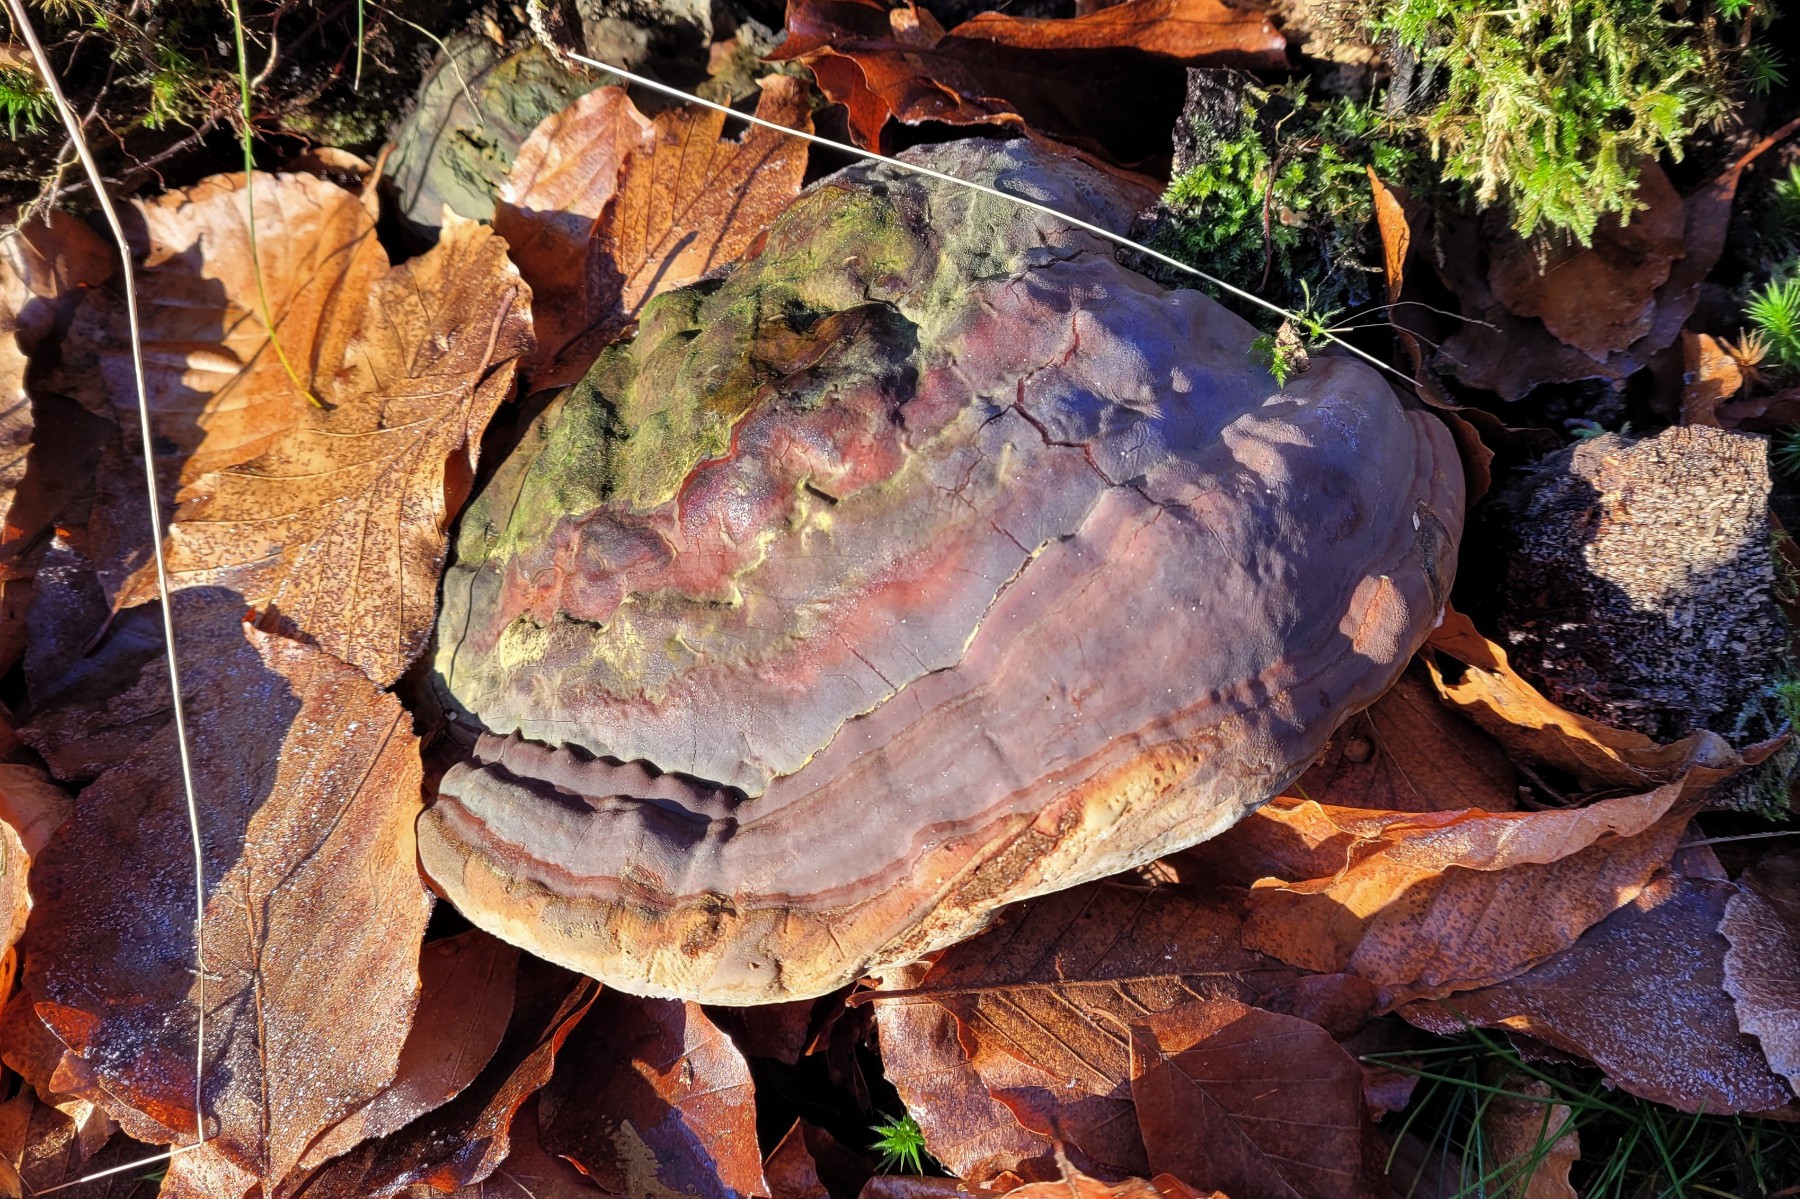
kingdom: Fungi
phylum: Basidiomycota
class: Agaricomycetes
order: Polyporales
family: Polyporaceae
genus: Ganoderma
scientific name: Ganoderma pfeifferi
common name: kobberrød lakporesvamp
